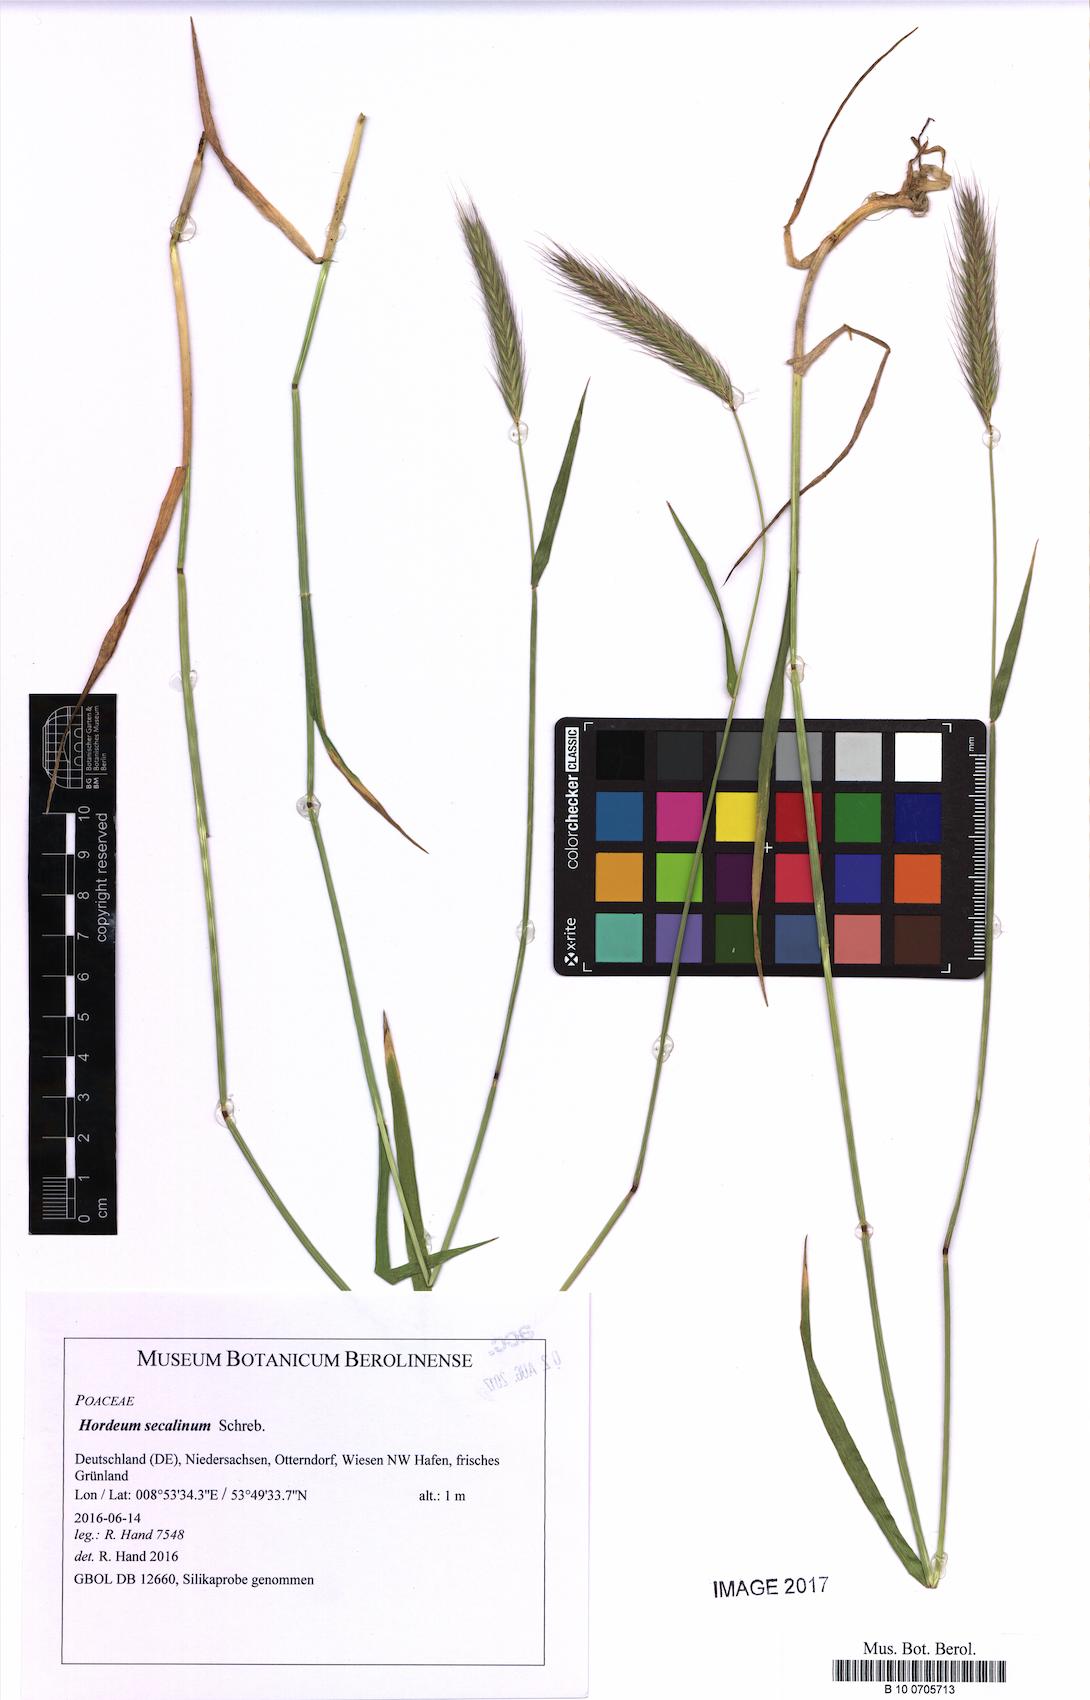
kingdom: Plantae
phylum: Tracheophyta
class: Liliopsida
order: Poales
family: Poaceae
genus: Hordeum
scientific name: Hordeum secalinum
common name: Meadow barley
